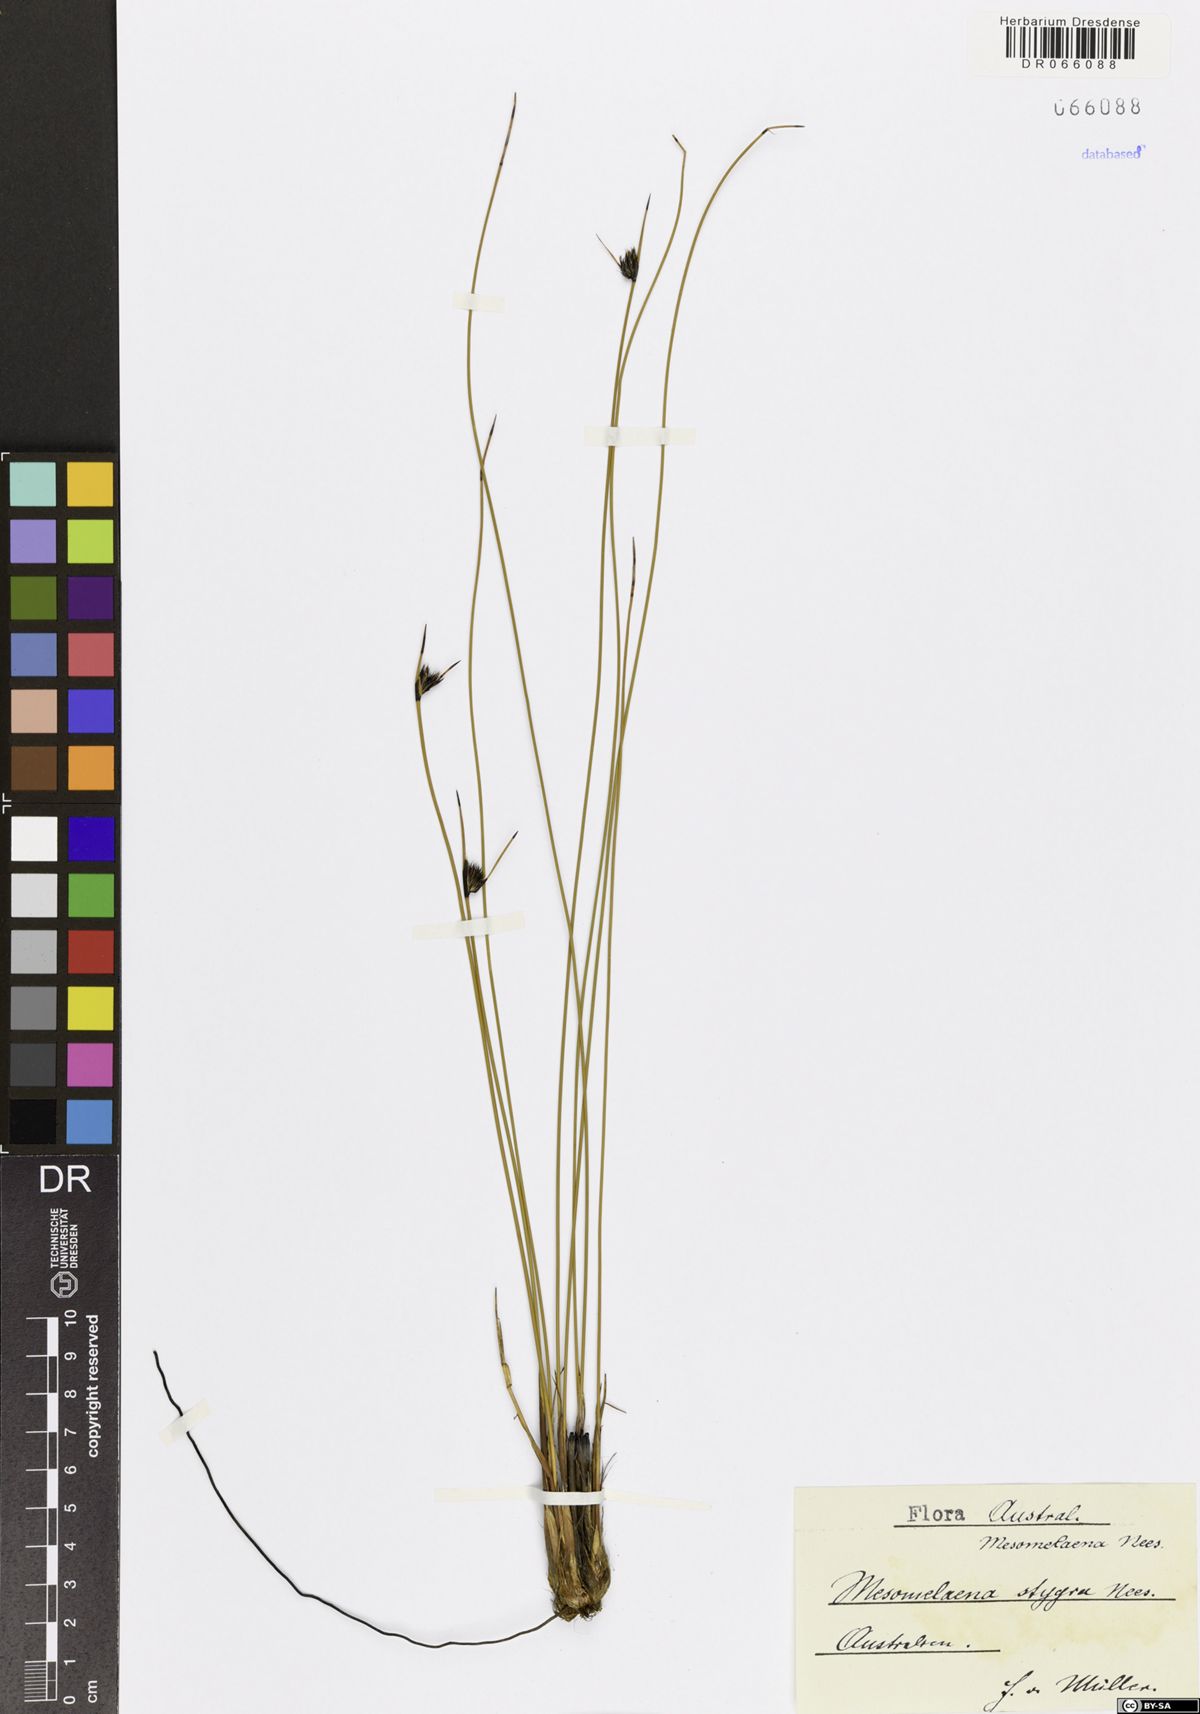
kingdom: Plantae
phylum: Tracheophyta
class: Liliopsida
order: Poales
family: Cyperaceae
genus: Mesomelaena
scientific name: Mesomelaena stygia
